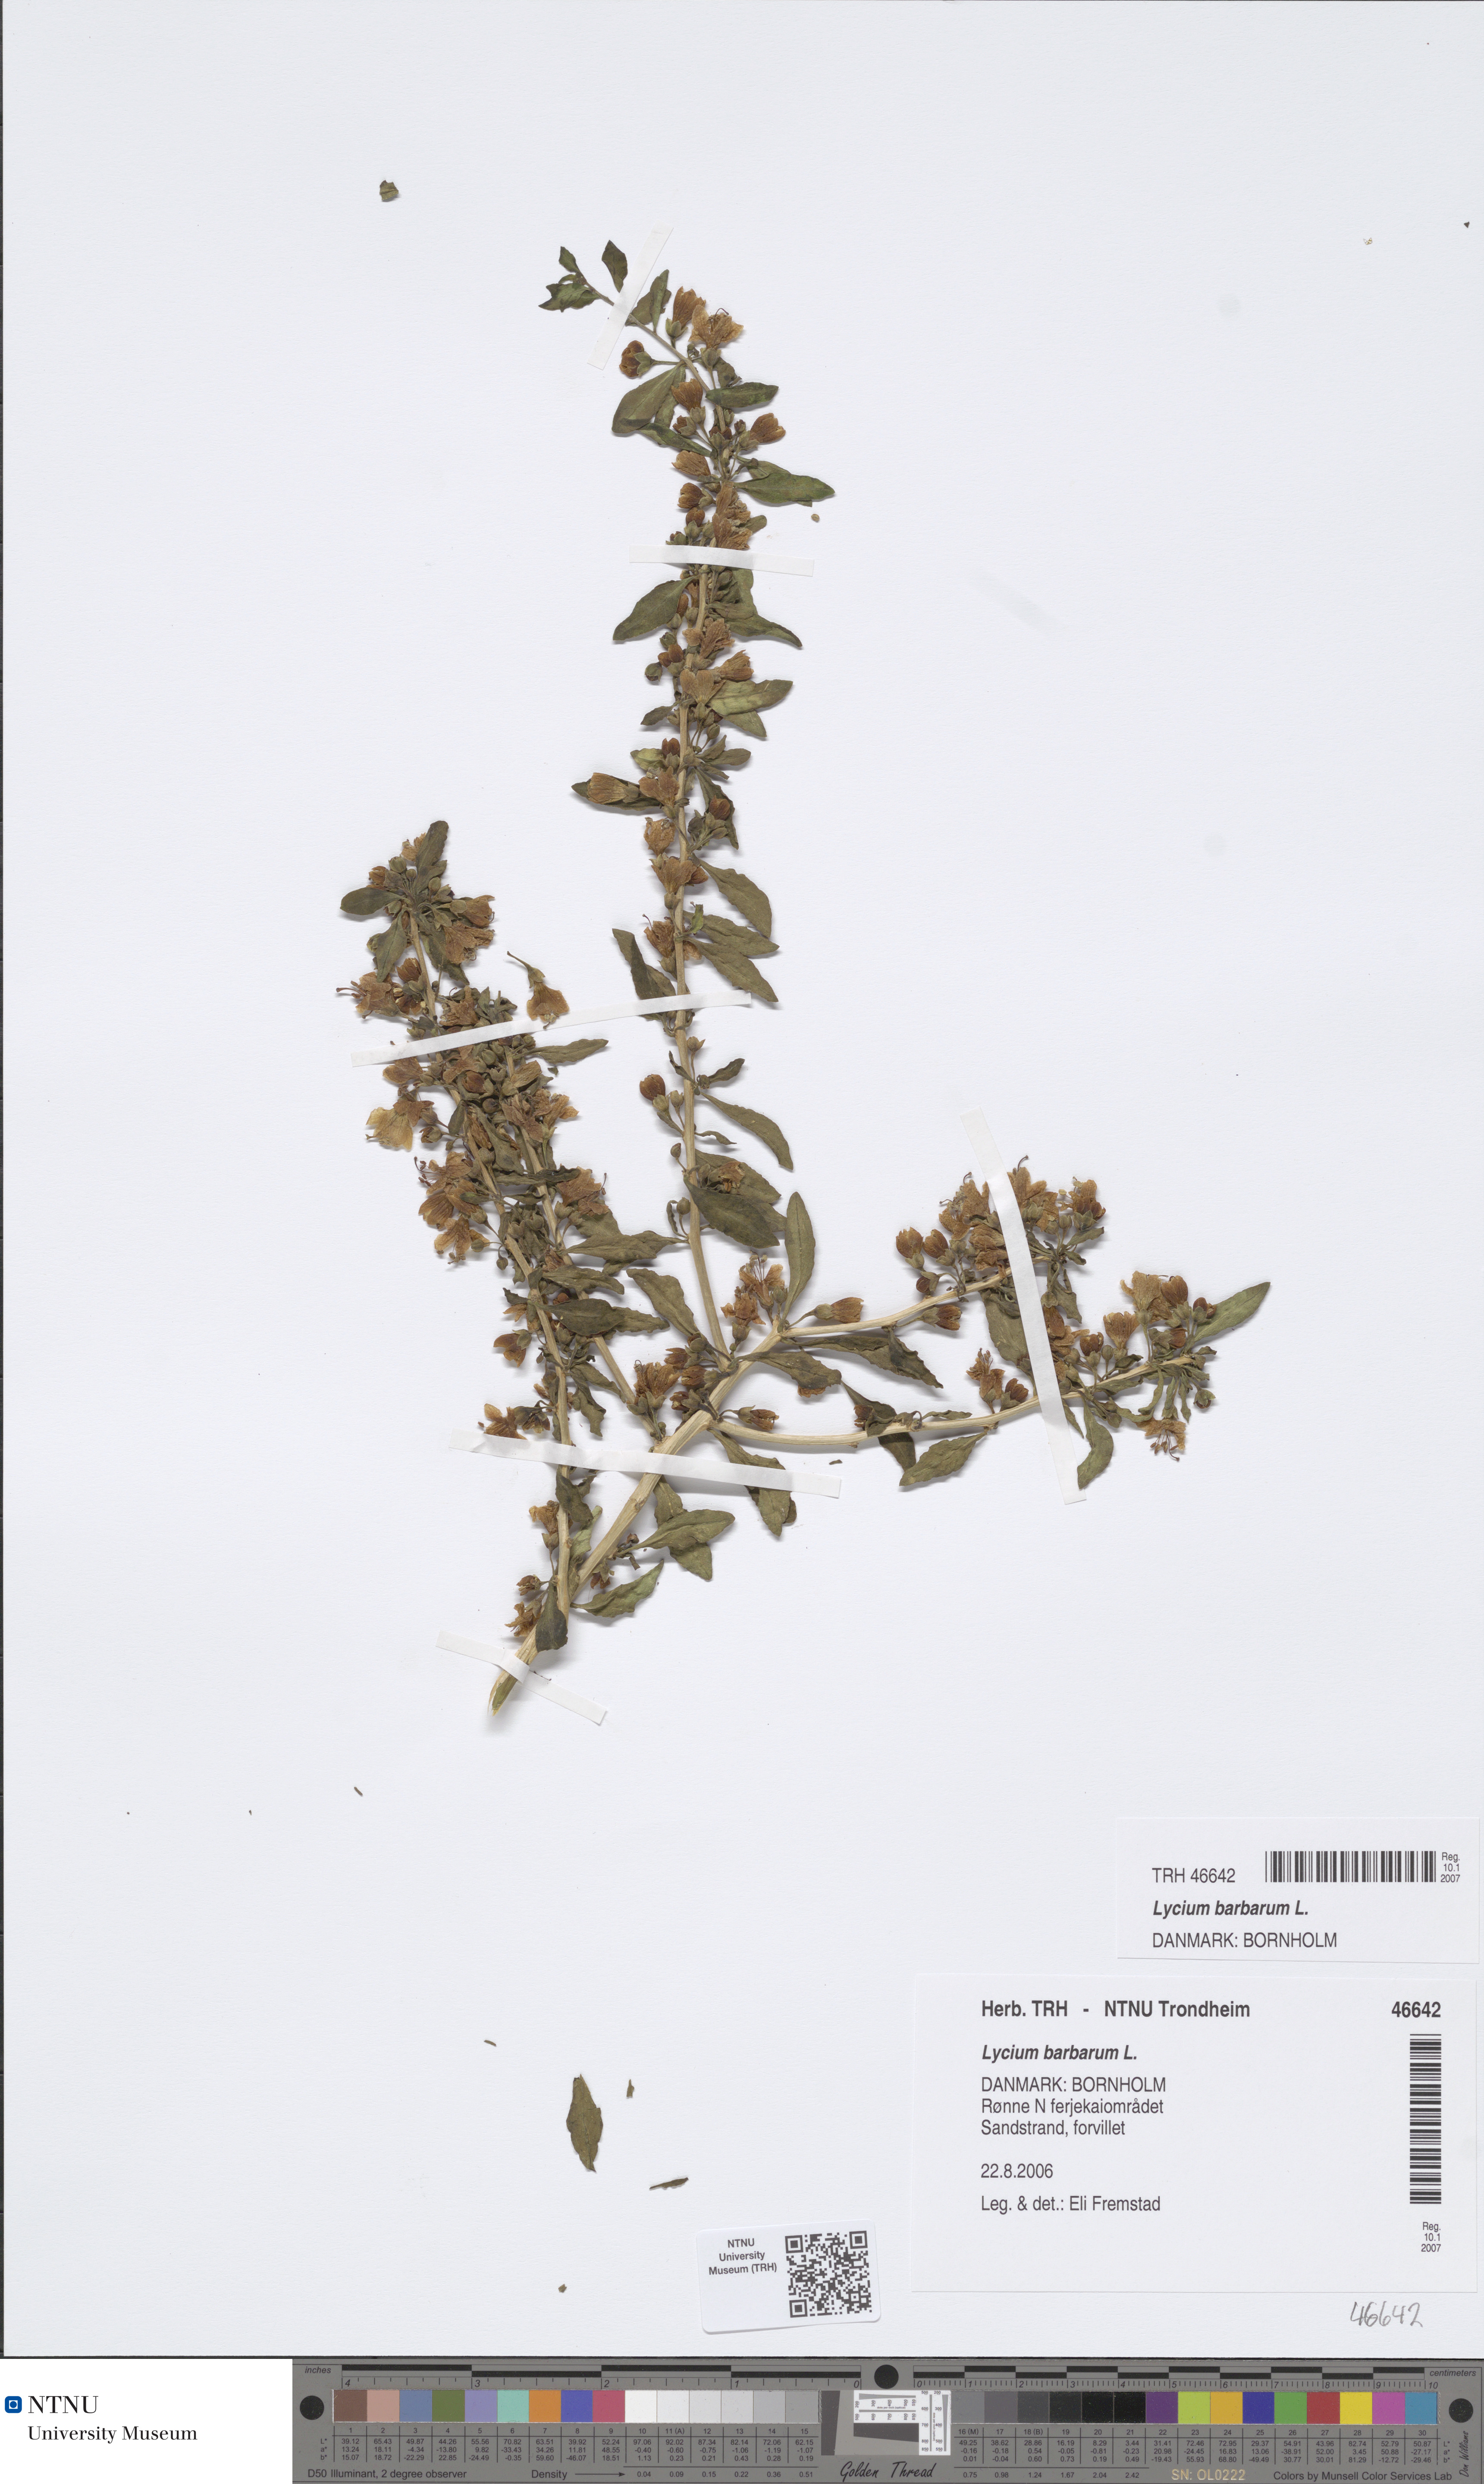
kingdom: Plantae
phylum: Tracheophyta
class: Magnoliopsida
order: Solanales
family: Solanaceae
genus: Lycium
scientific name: Lycium barbarum
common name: Duke of argyll's teaplant
